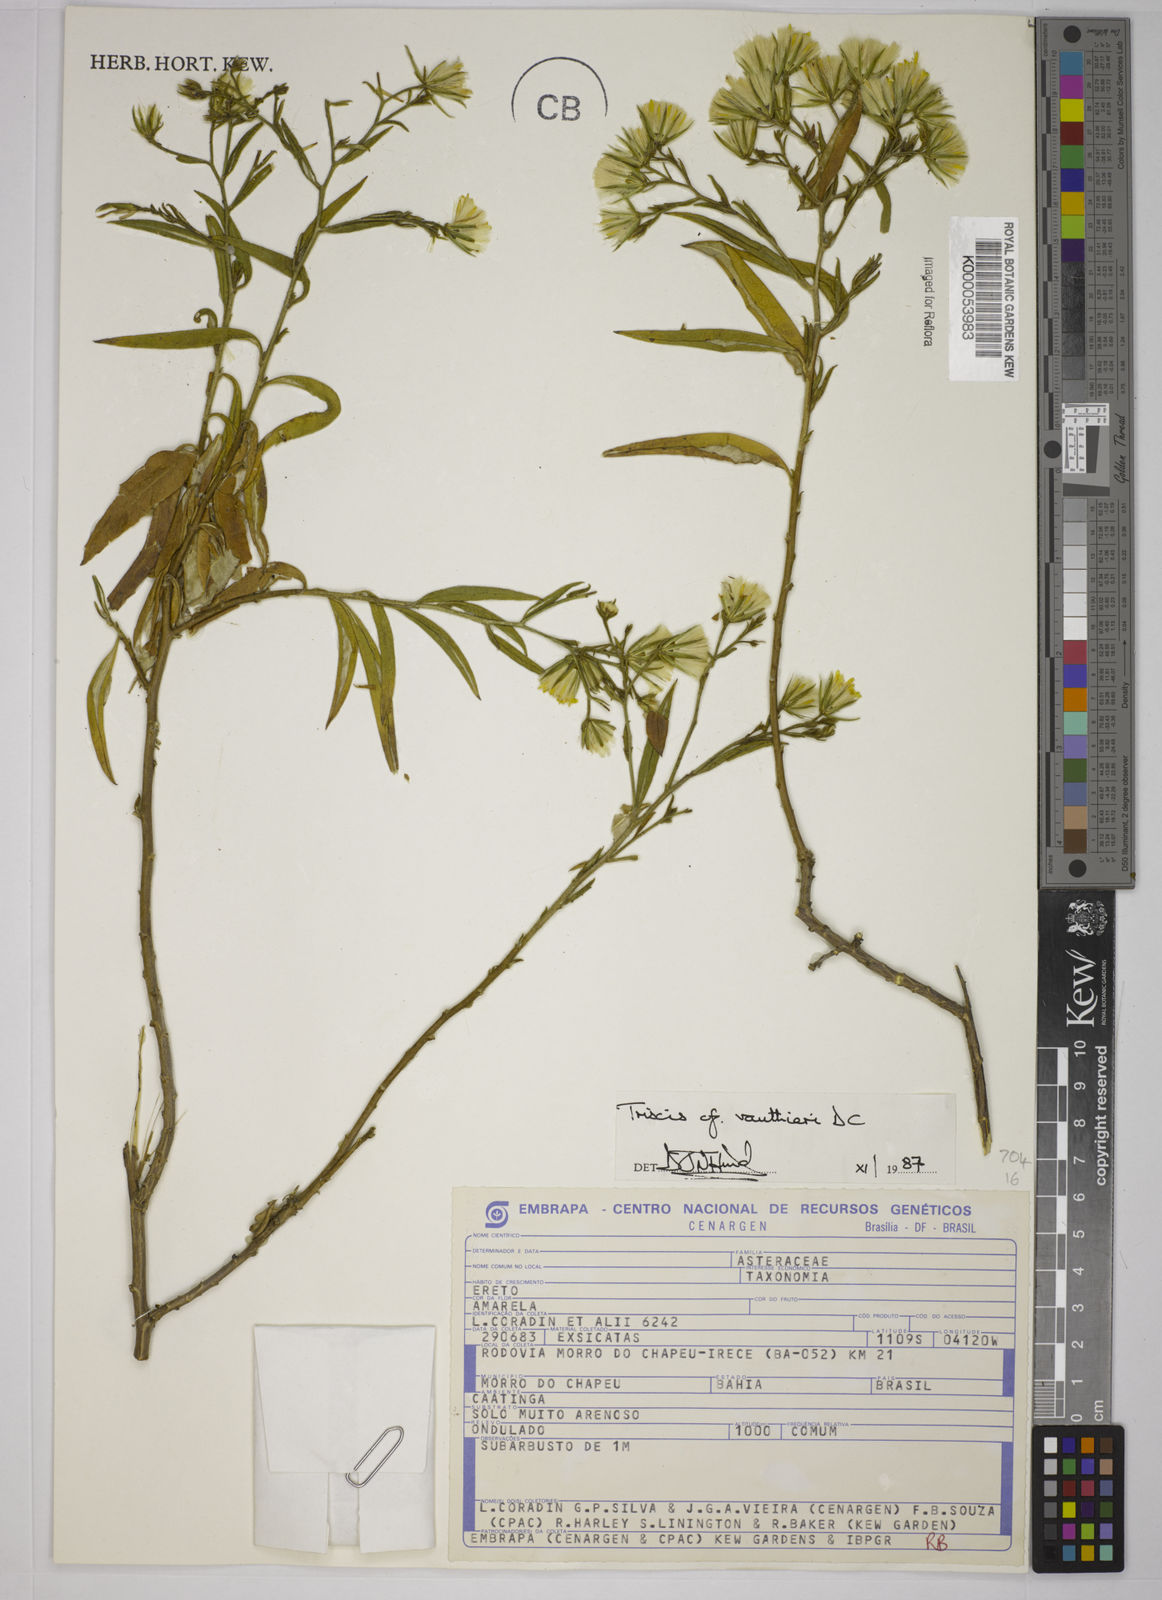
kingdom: Plantae
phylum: Tracheophyta
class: Magnoliopsida
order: Asterales
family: Asteraceae
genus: Trixis
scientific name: Trixis vauthieri
